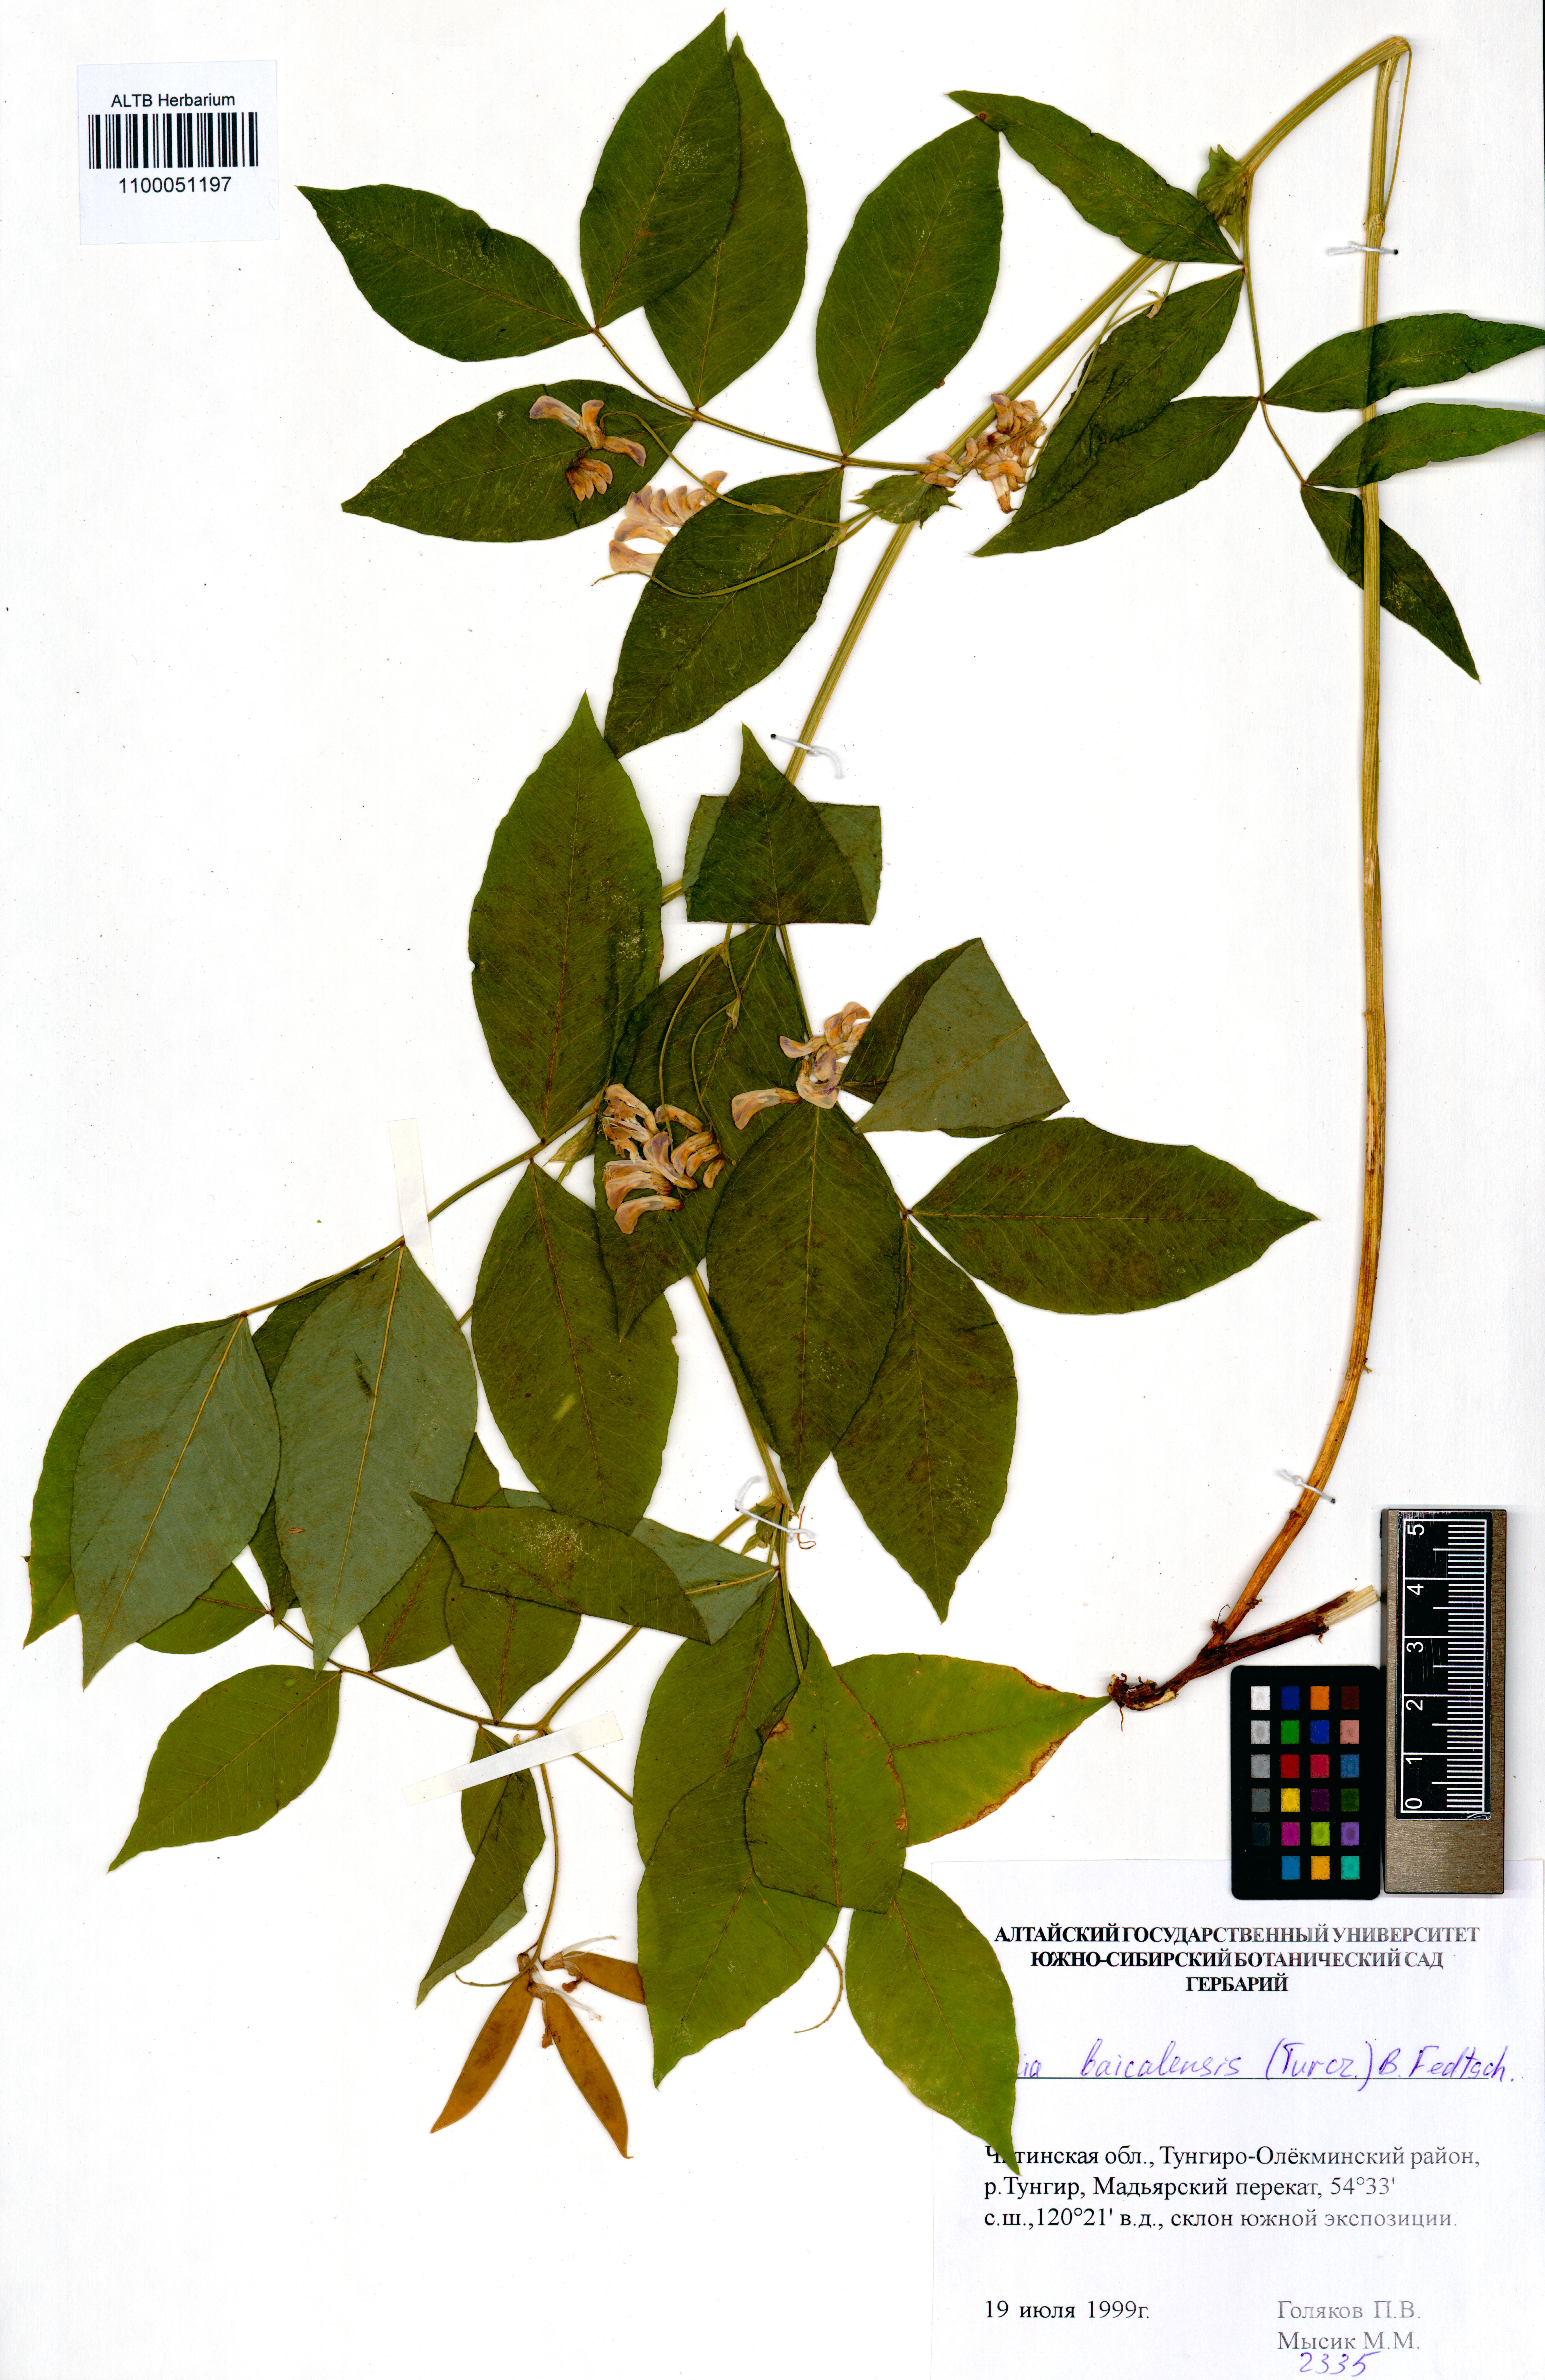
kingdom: Plantae
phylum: Tracheophyta
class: Magnoliopsida
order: Fabales
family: Fabaceae
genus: Vicia
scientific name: Vicia ramuliflora
